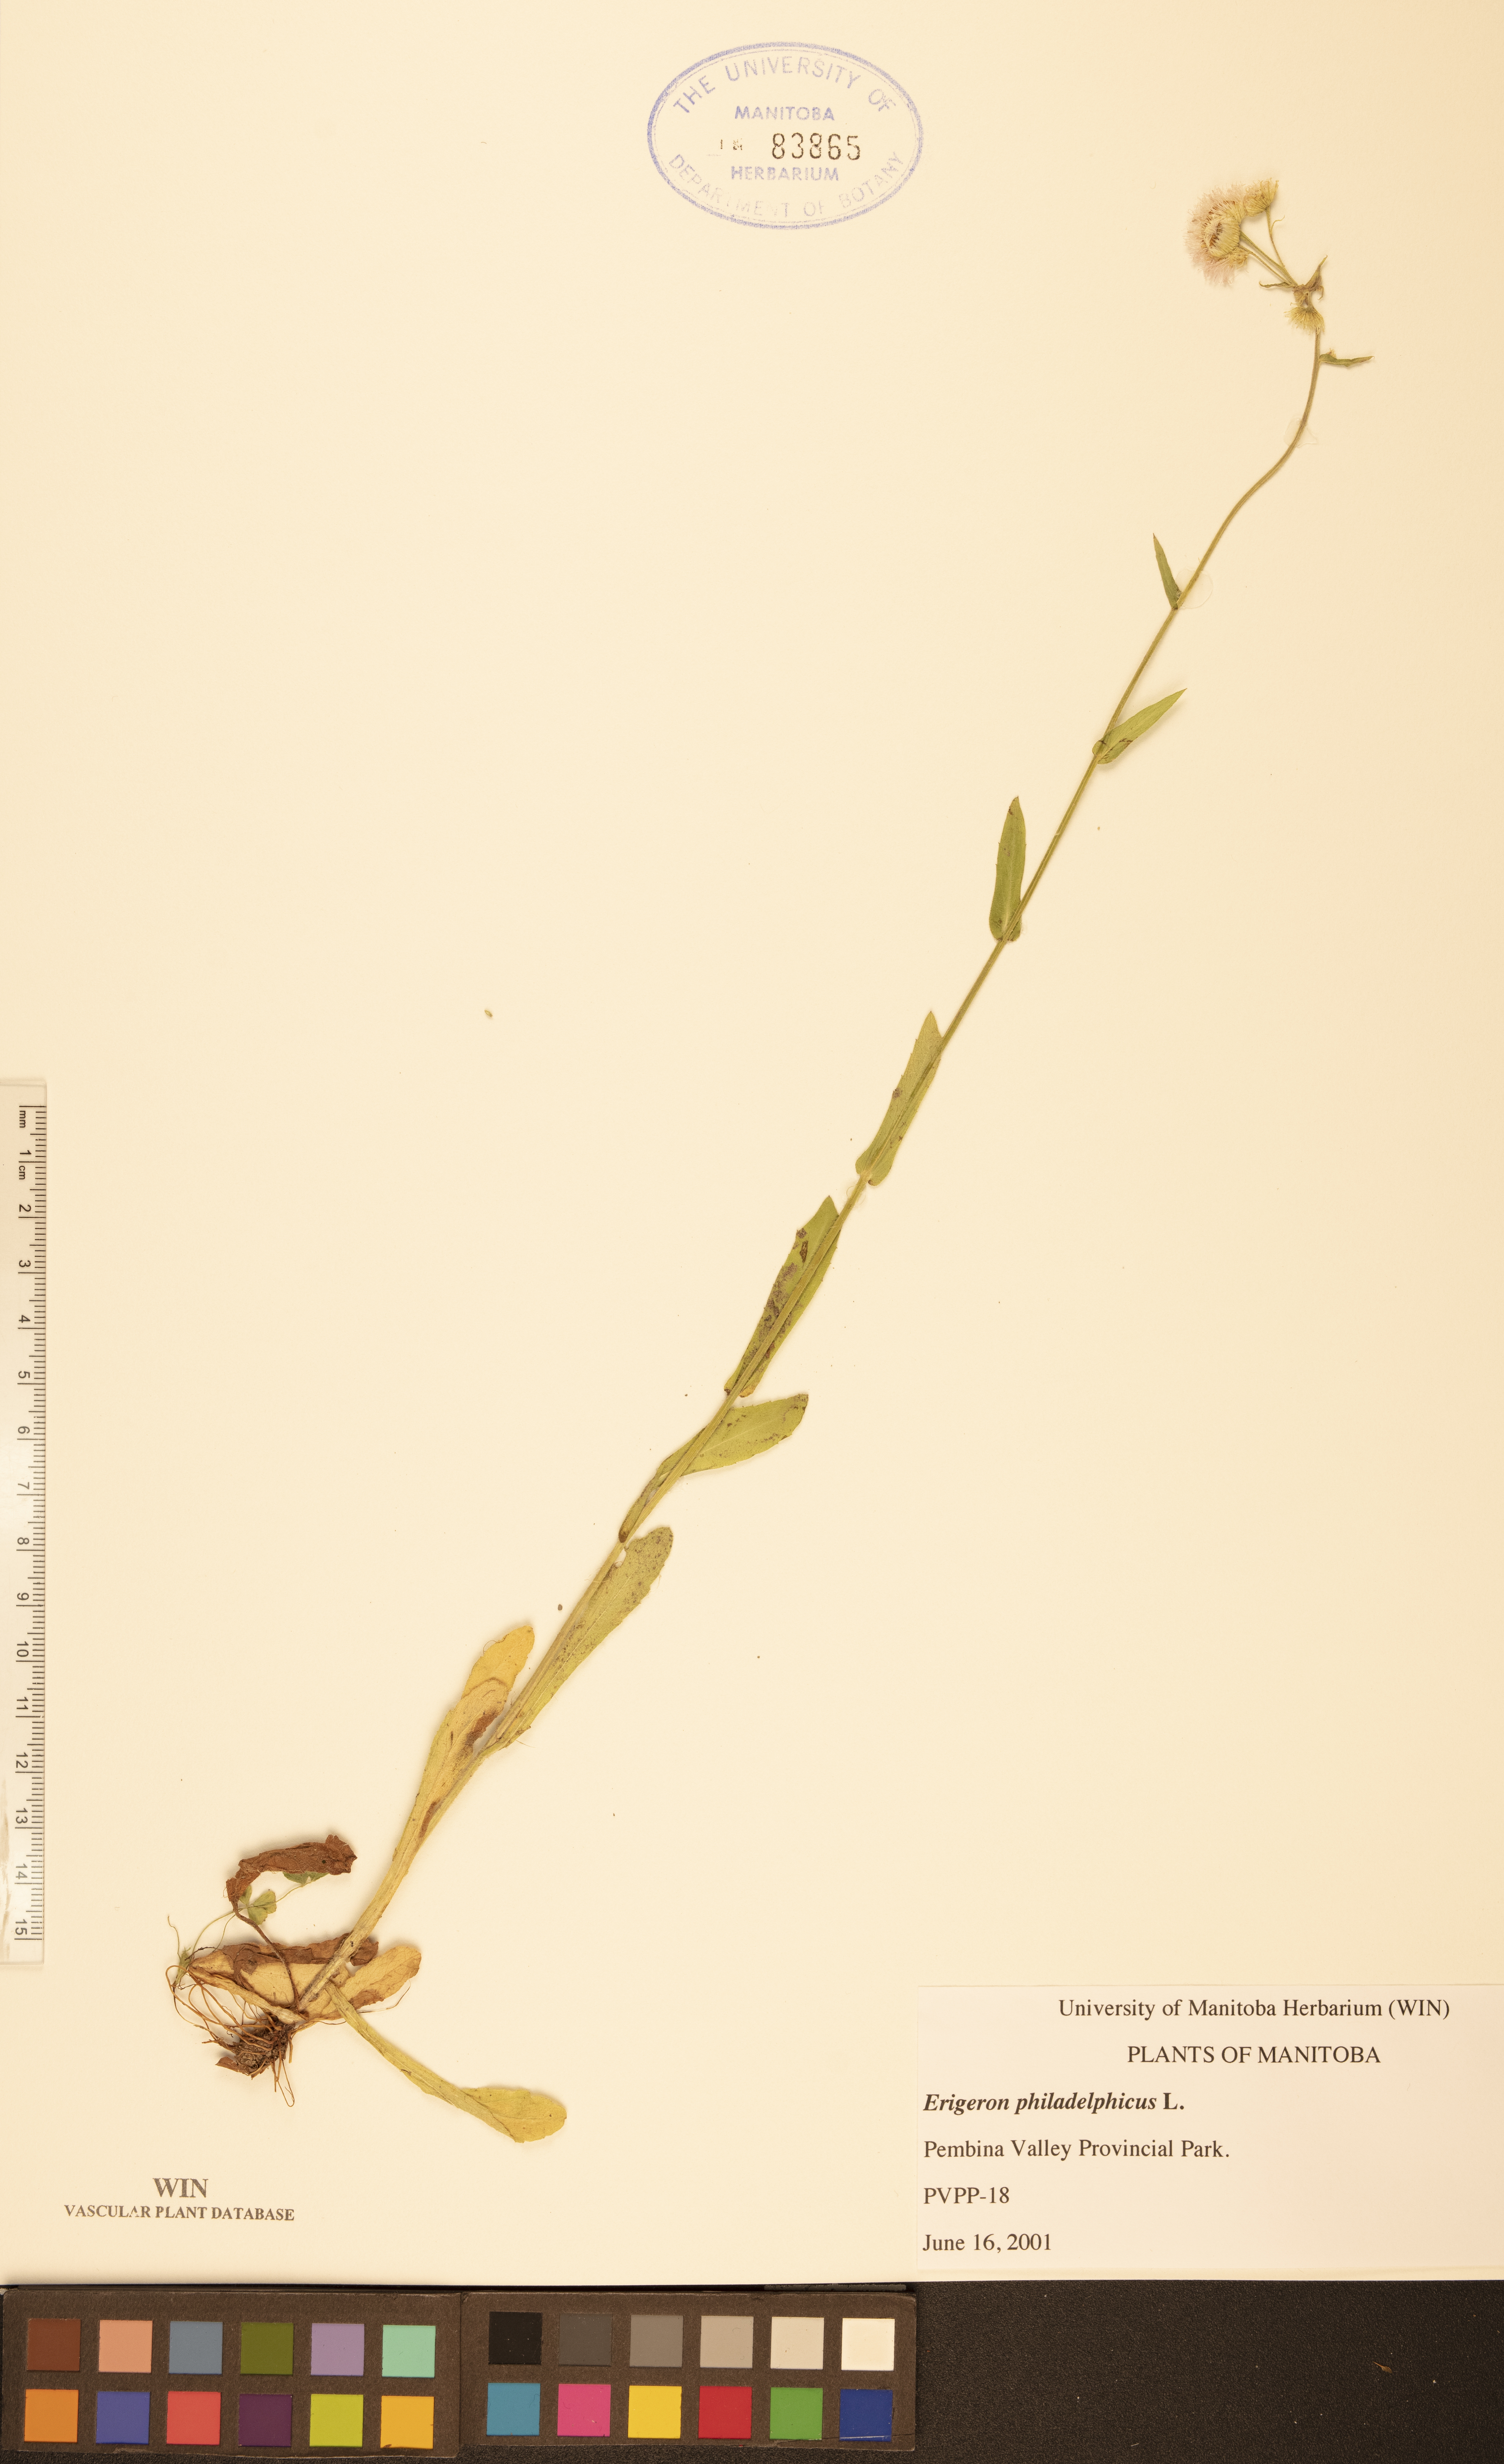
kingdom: Plantae
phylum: Tracheophyta
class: Magnoliopsida
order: Asterales
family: Asteraceae
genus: Erigeron
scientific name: Erigeron philadelphicus
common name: Robin's-plantain
